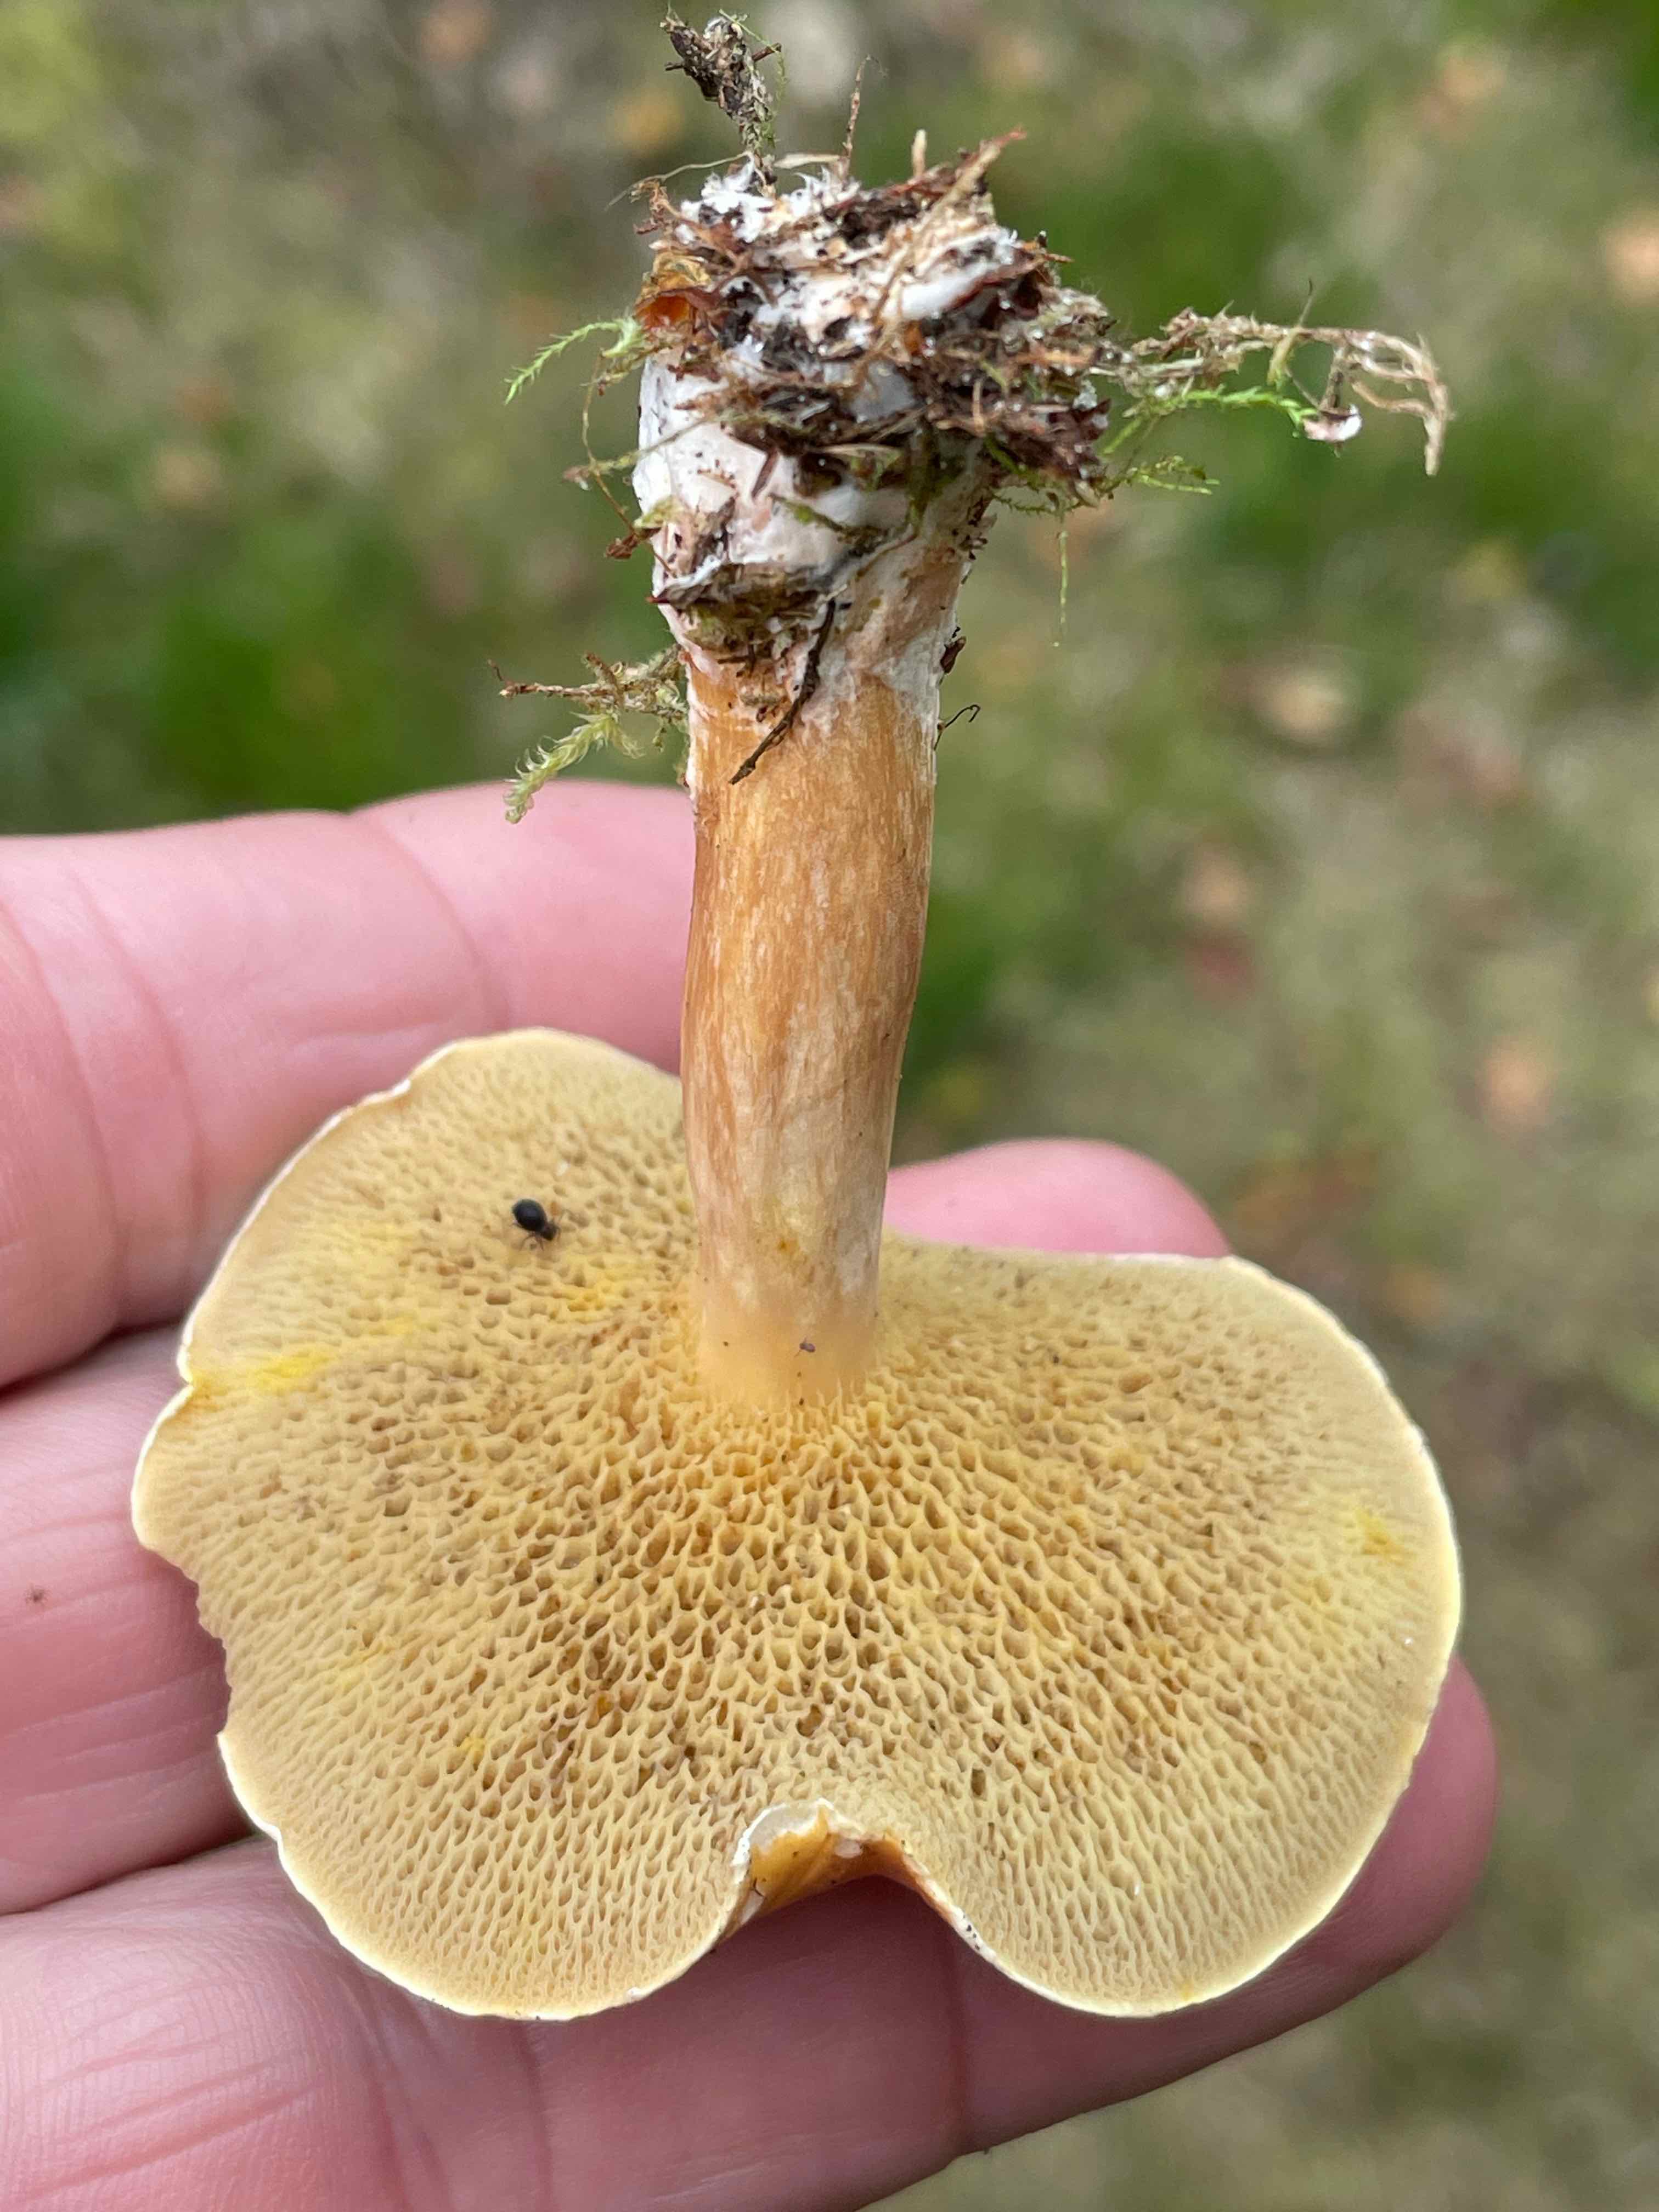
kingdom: Fungi
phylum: Basidiomycota
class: Agaricomycetes
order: Boletales
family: Suillaceae
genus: Suillus
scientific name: Suillus bovinus
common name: grovporet slimrørhat
